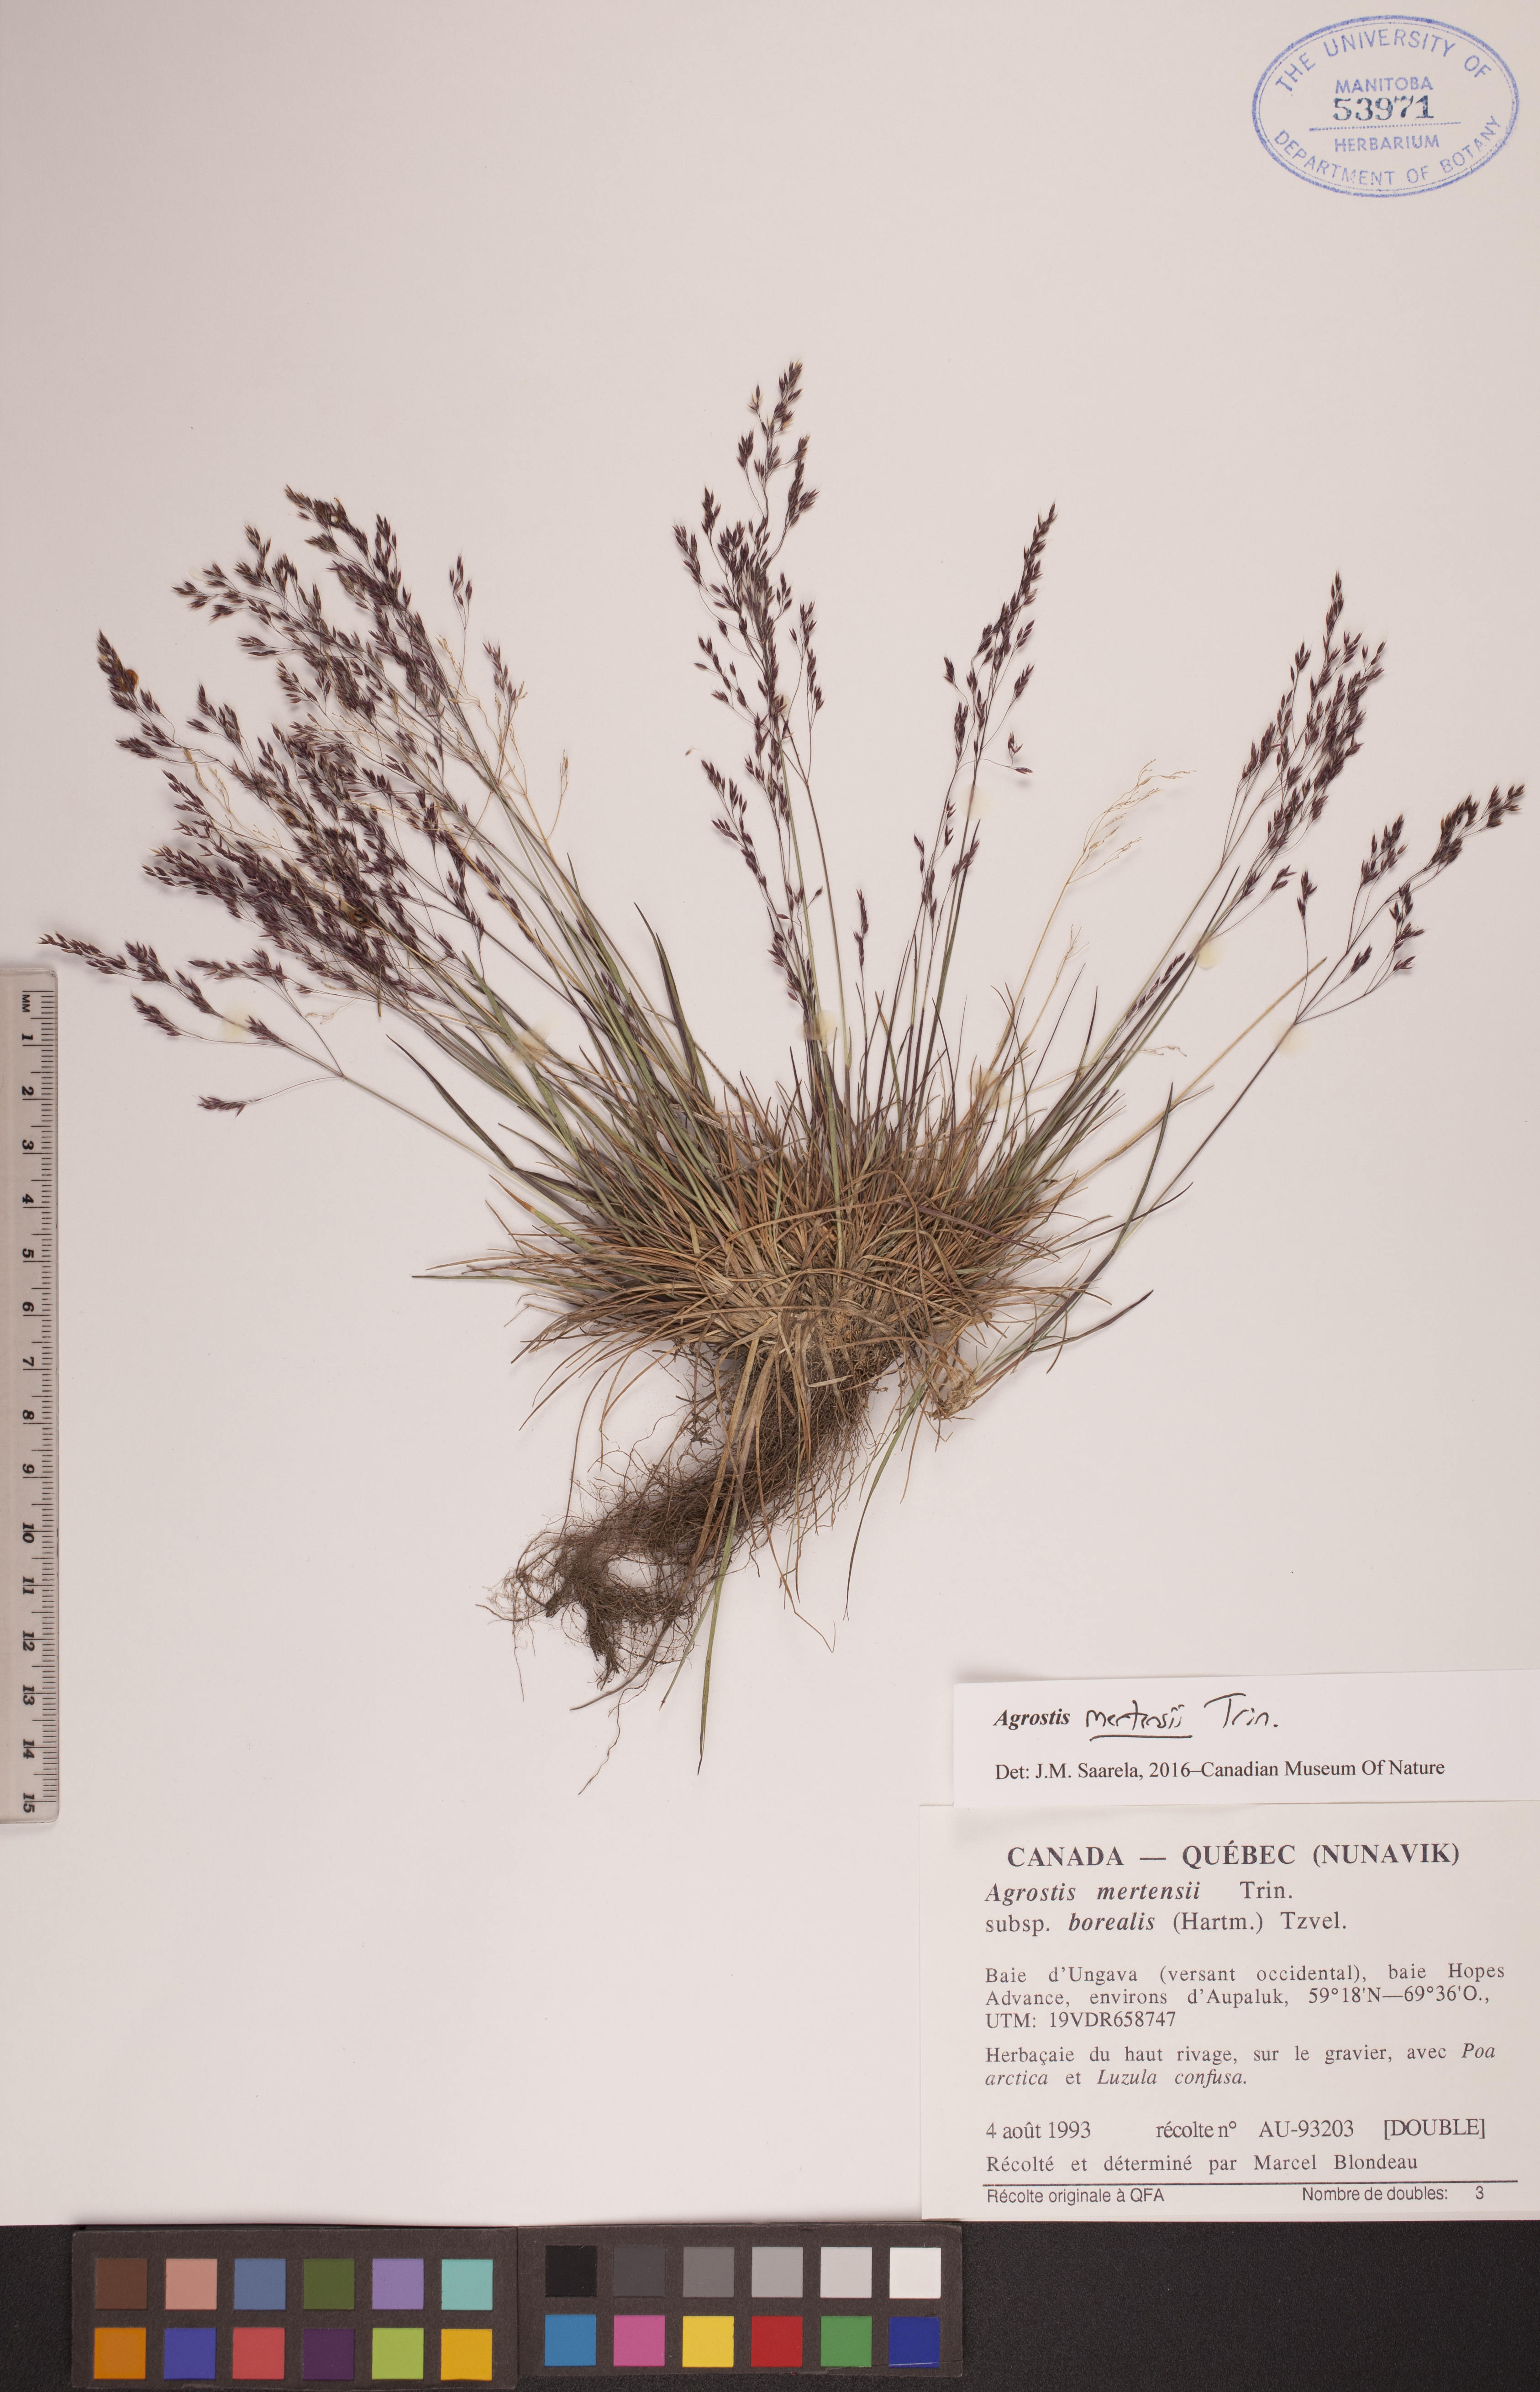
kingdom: Plantae
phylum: Tracheophyta
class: Liliopsida
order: Poales
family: Poaceae
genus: Agrostis
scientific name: Agrostis mertensii
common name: Northern bent
